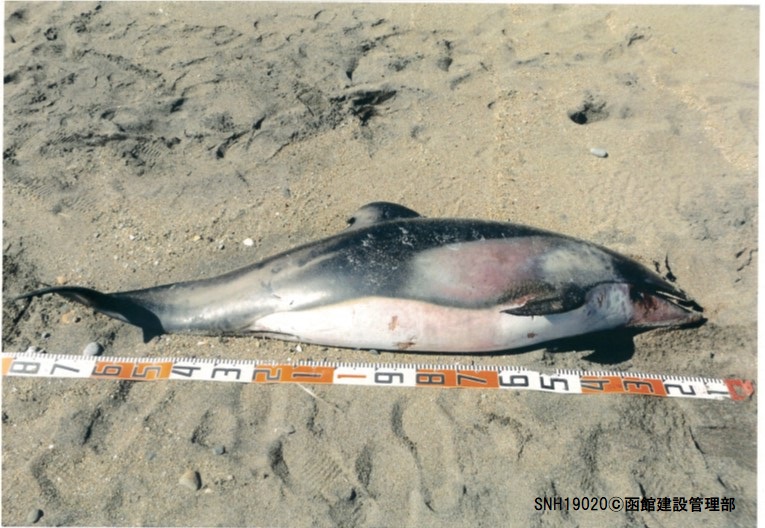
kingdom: Animalia
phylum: Chordata
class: Mammalia
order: Cetacea
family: Delphinidae
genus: Lagenorhynchus
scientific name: Lagenorhynchus obliquidens
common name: Pacific white-sided dolphin
